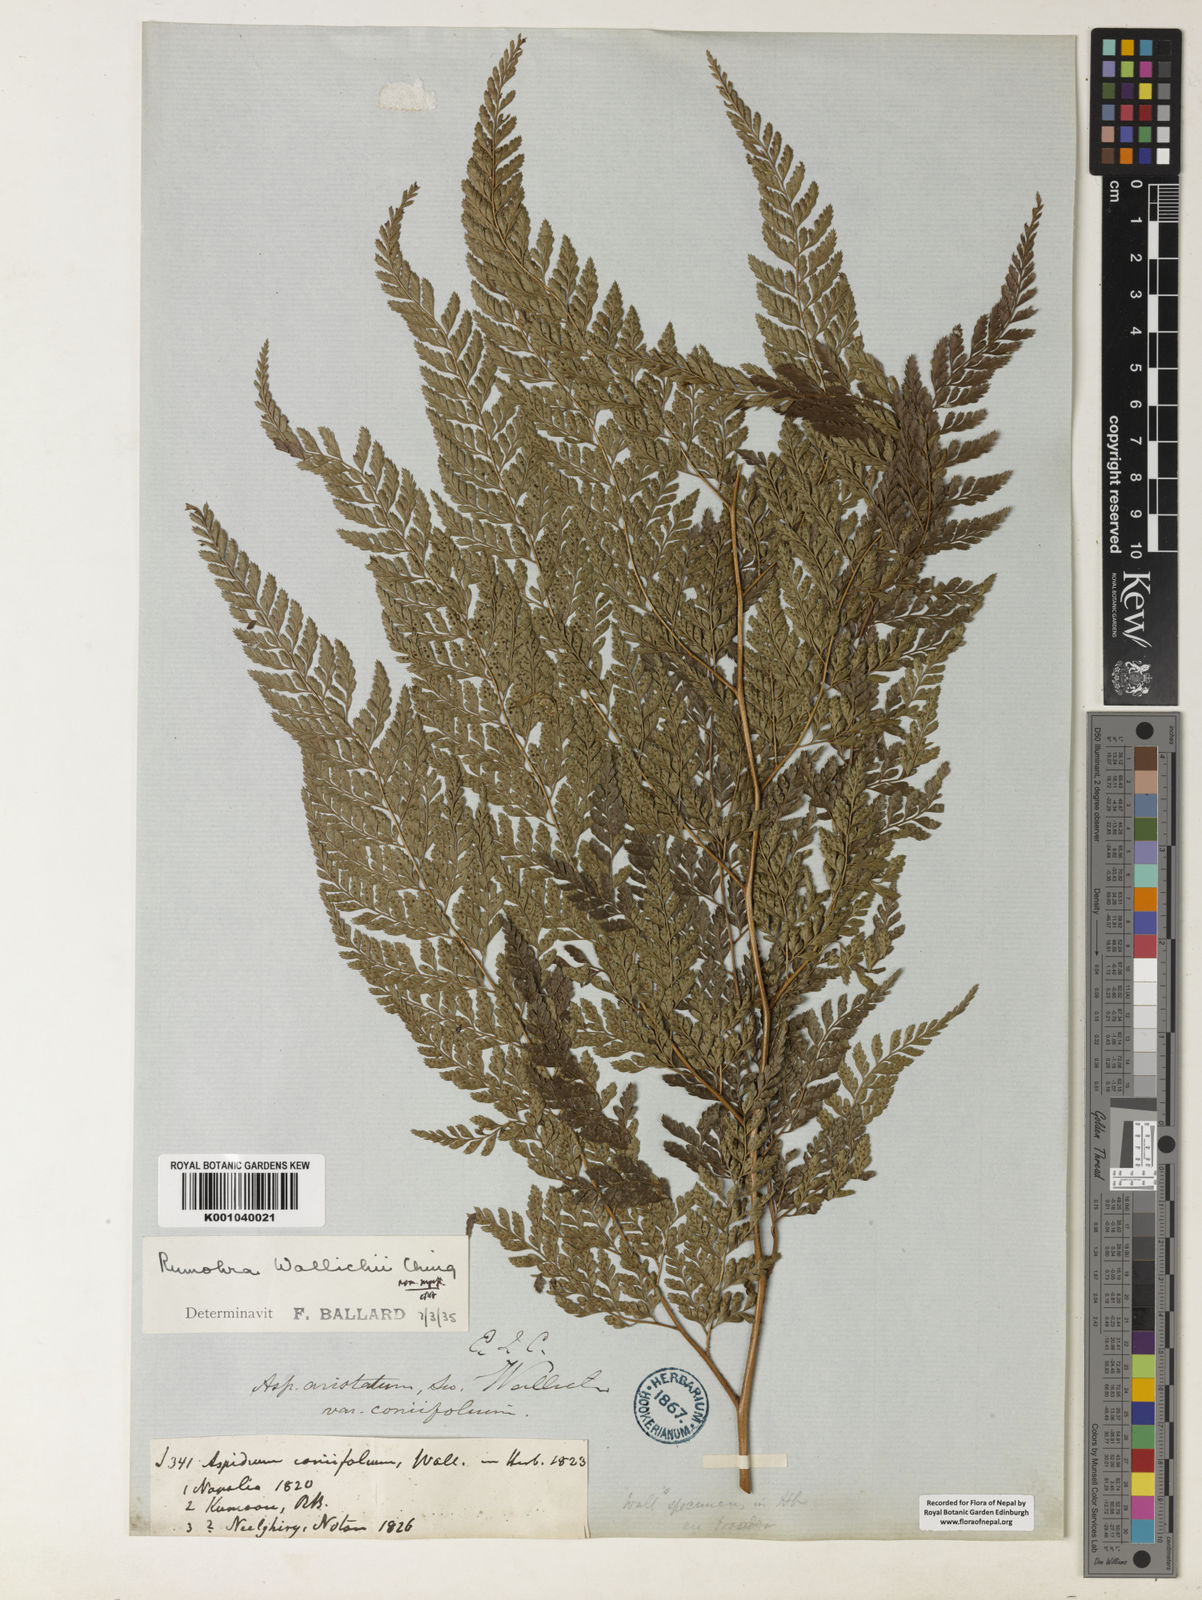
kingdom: Plantae
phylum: Tracheophyta
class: Polypodiopsida
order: Polypodiales
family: Dryopteridaceae
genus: Arachniodes
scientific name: Arachniodes coniifolia
